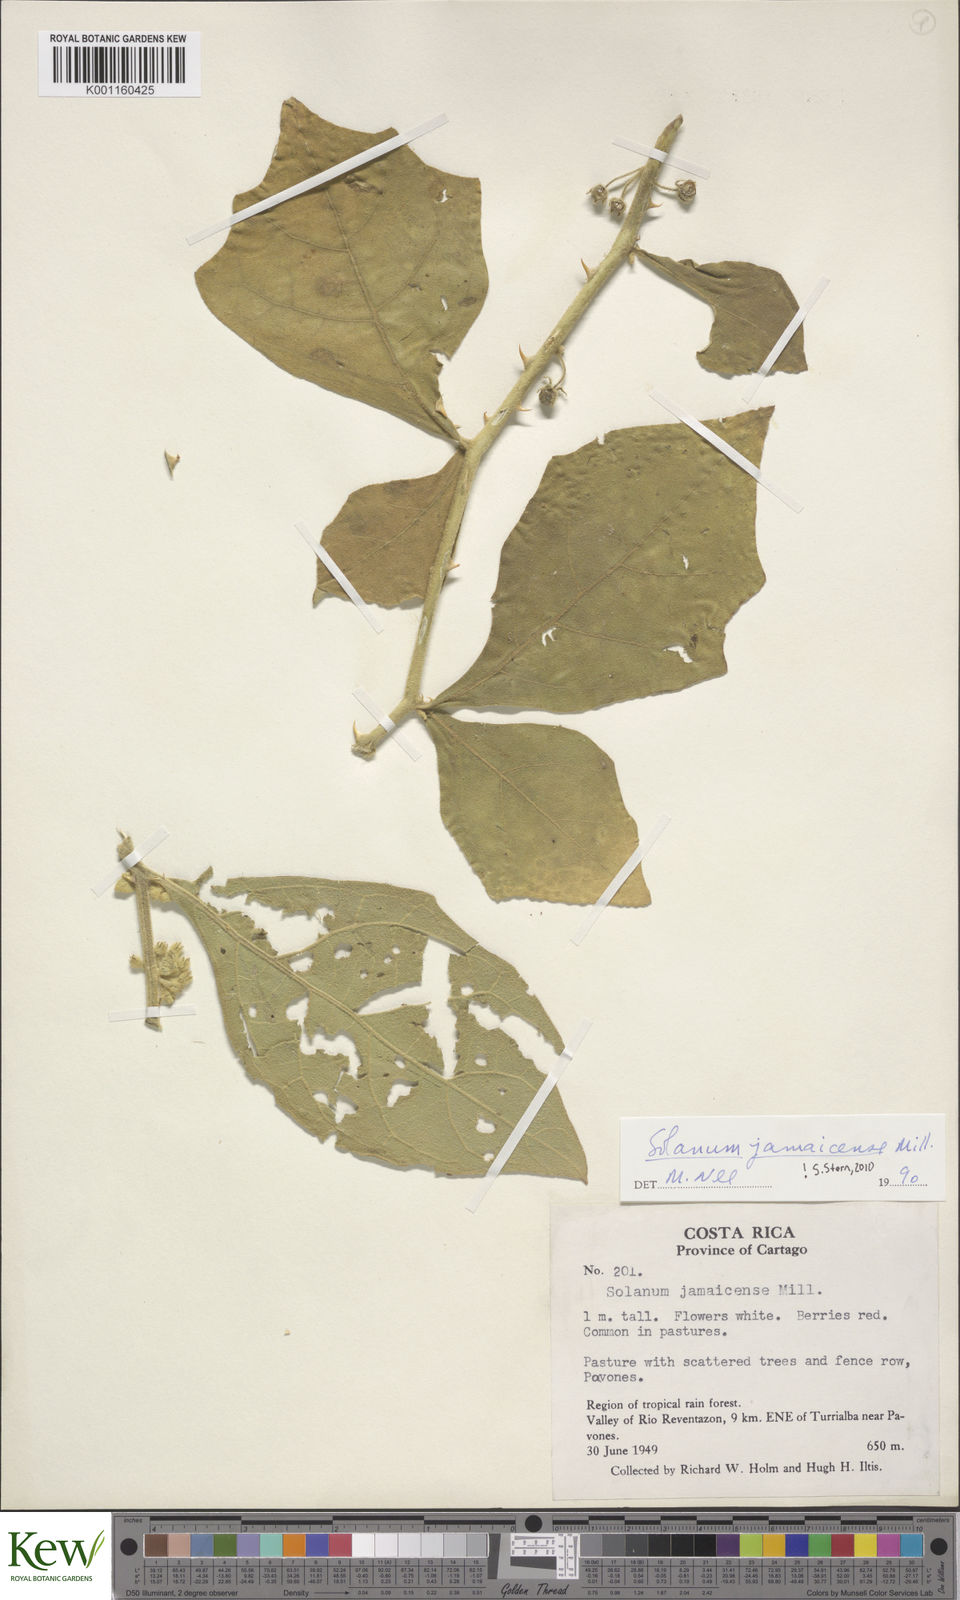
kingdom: Plantae
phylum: Tracheophyta
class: Magnoliopsida
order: Solanales
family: Solanaceae
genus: Solanum
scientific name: Solanum jamaicense
